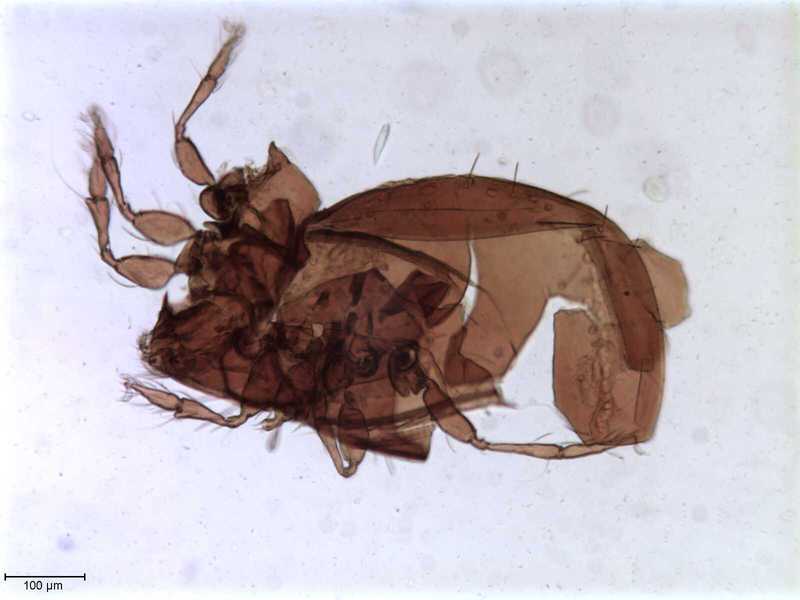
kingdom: Animalia
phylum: Arthropoda
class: Arachnida
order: Sarcoptiformes
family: Oribatulidae
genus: Oribatula
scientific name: Oribatula
